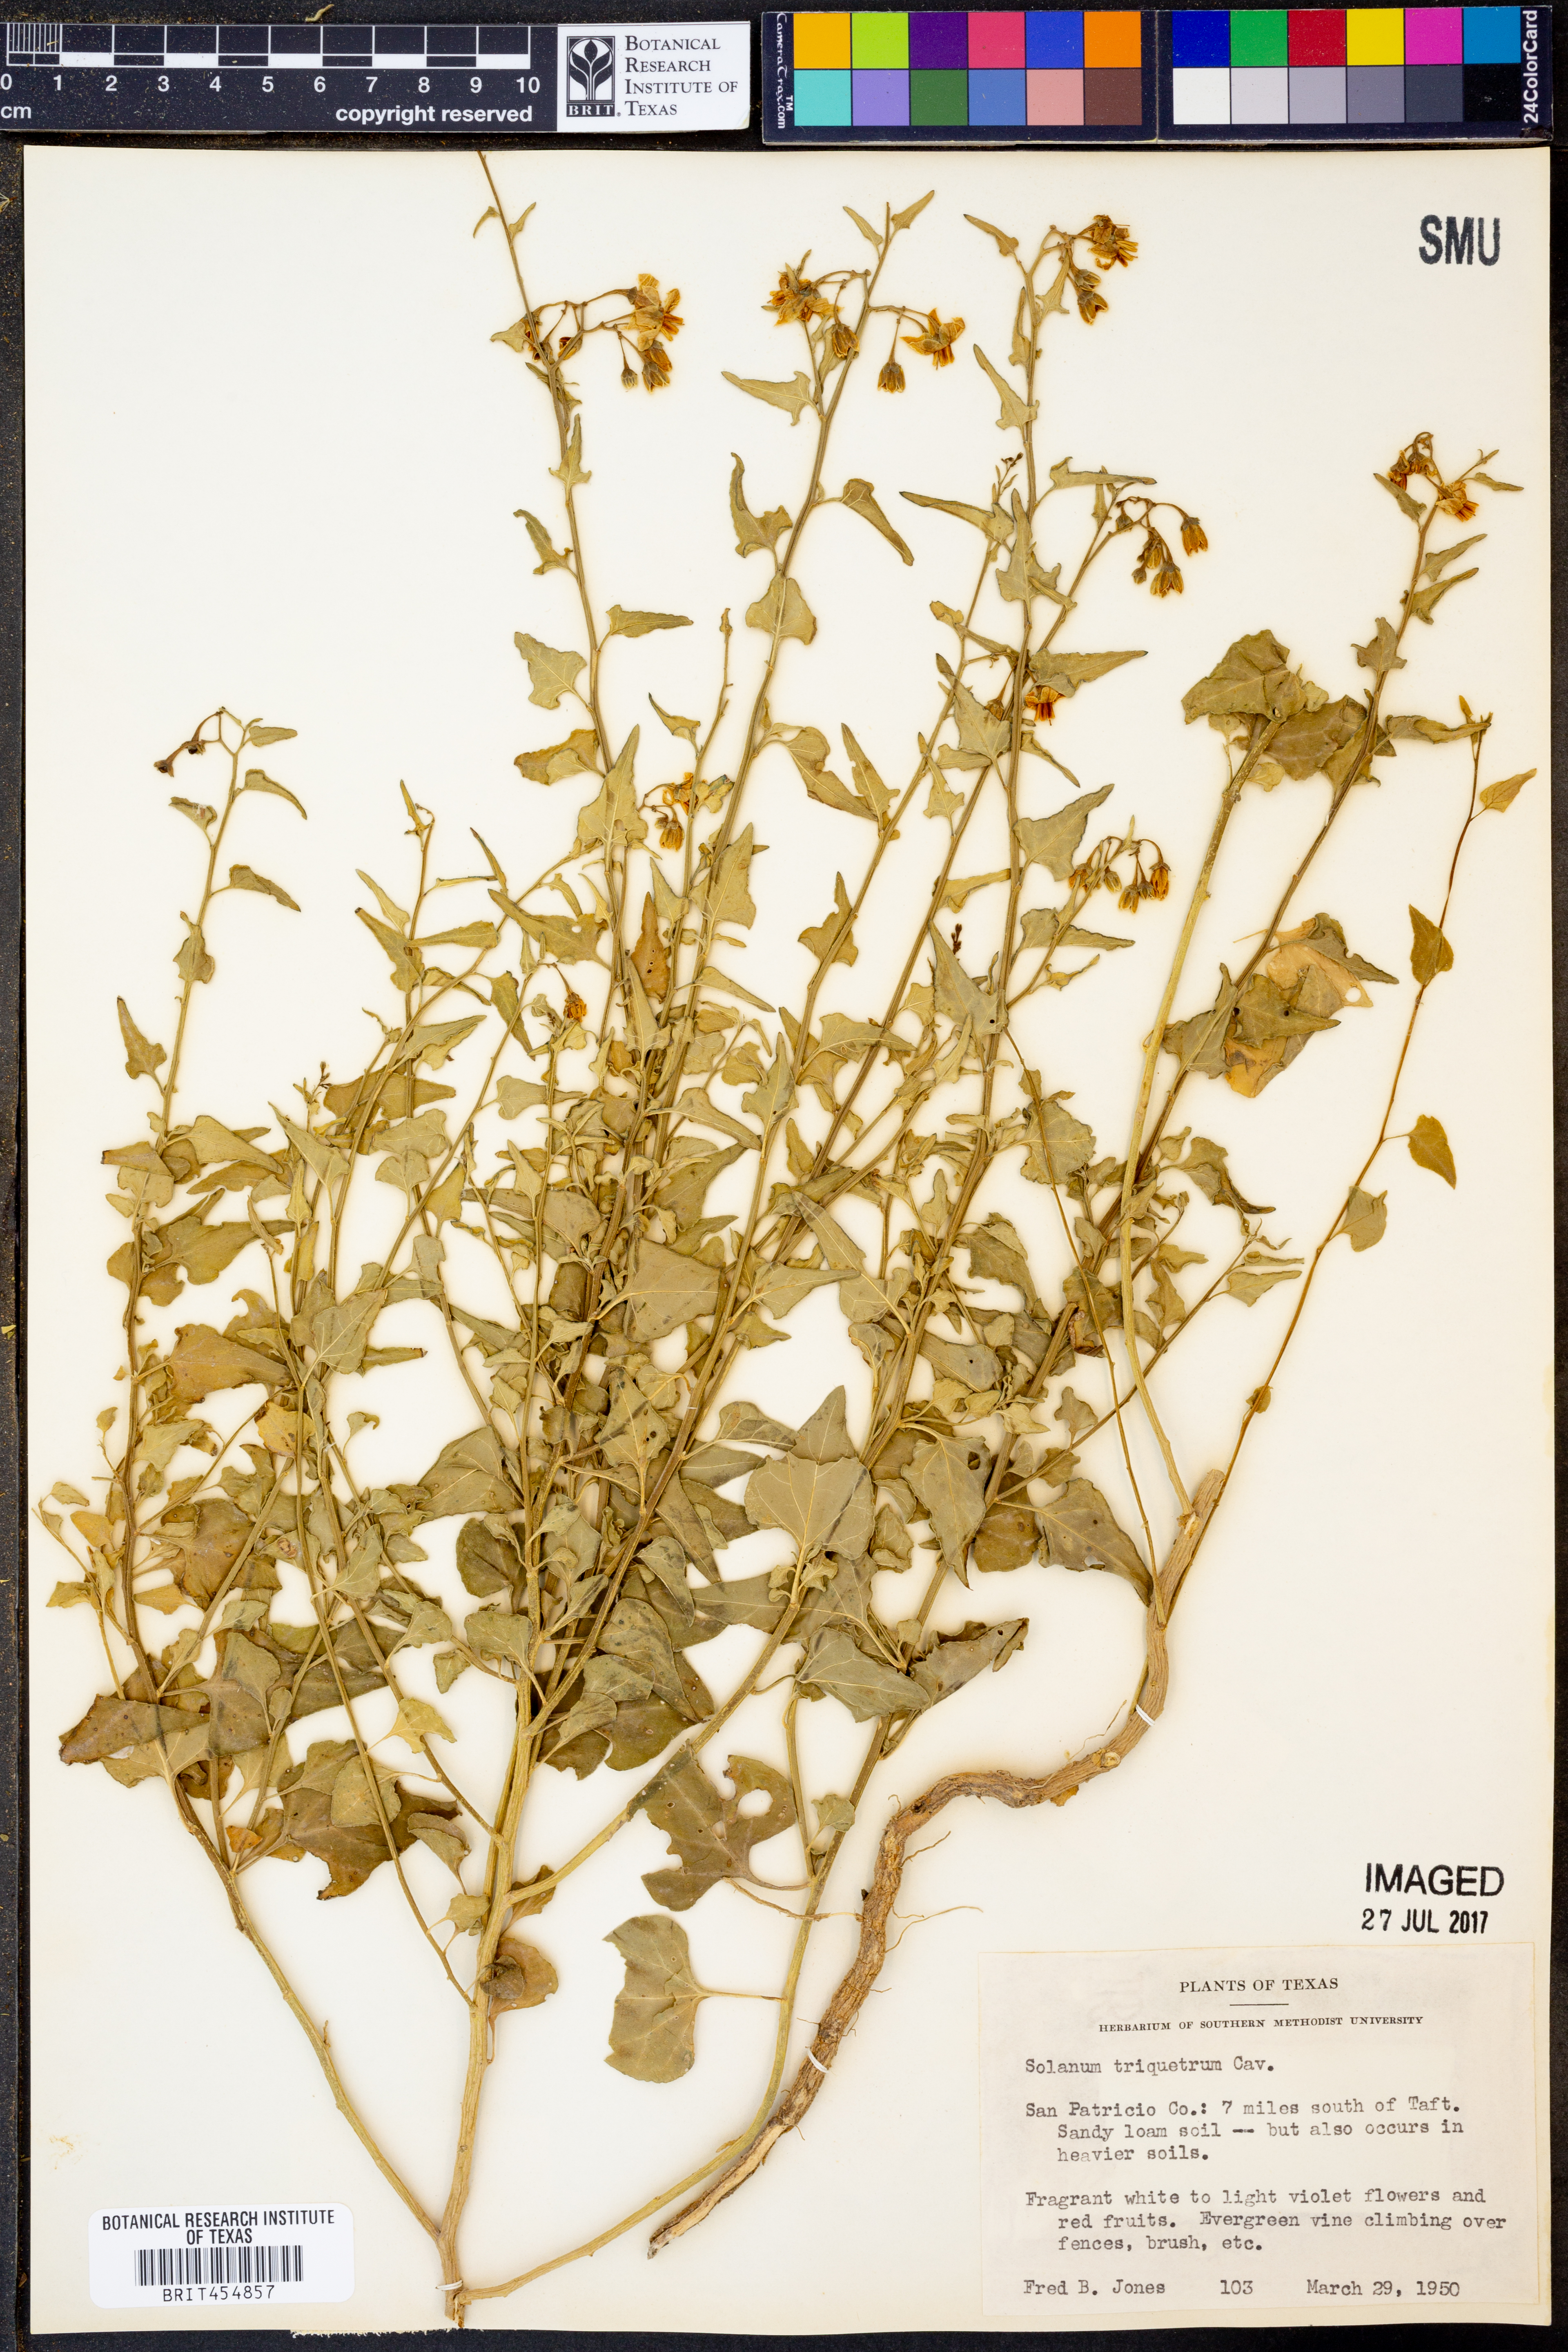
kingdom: Plantae
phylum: Tracheophyta
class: Magnoliopsida
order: Solanales
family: Solanaceae
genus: Solanum
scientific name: Solanum triquetrum
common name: Texas nightshade
